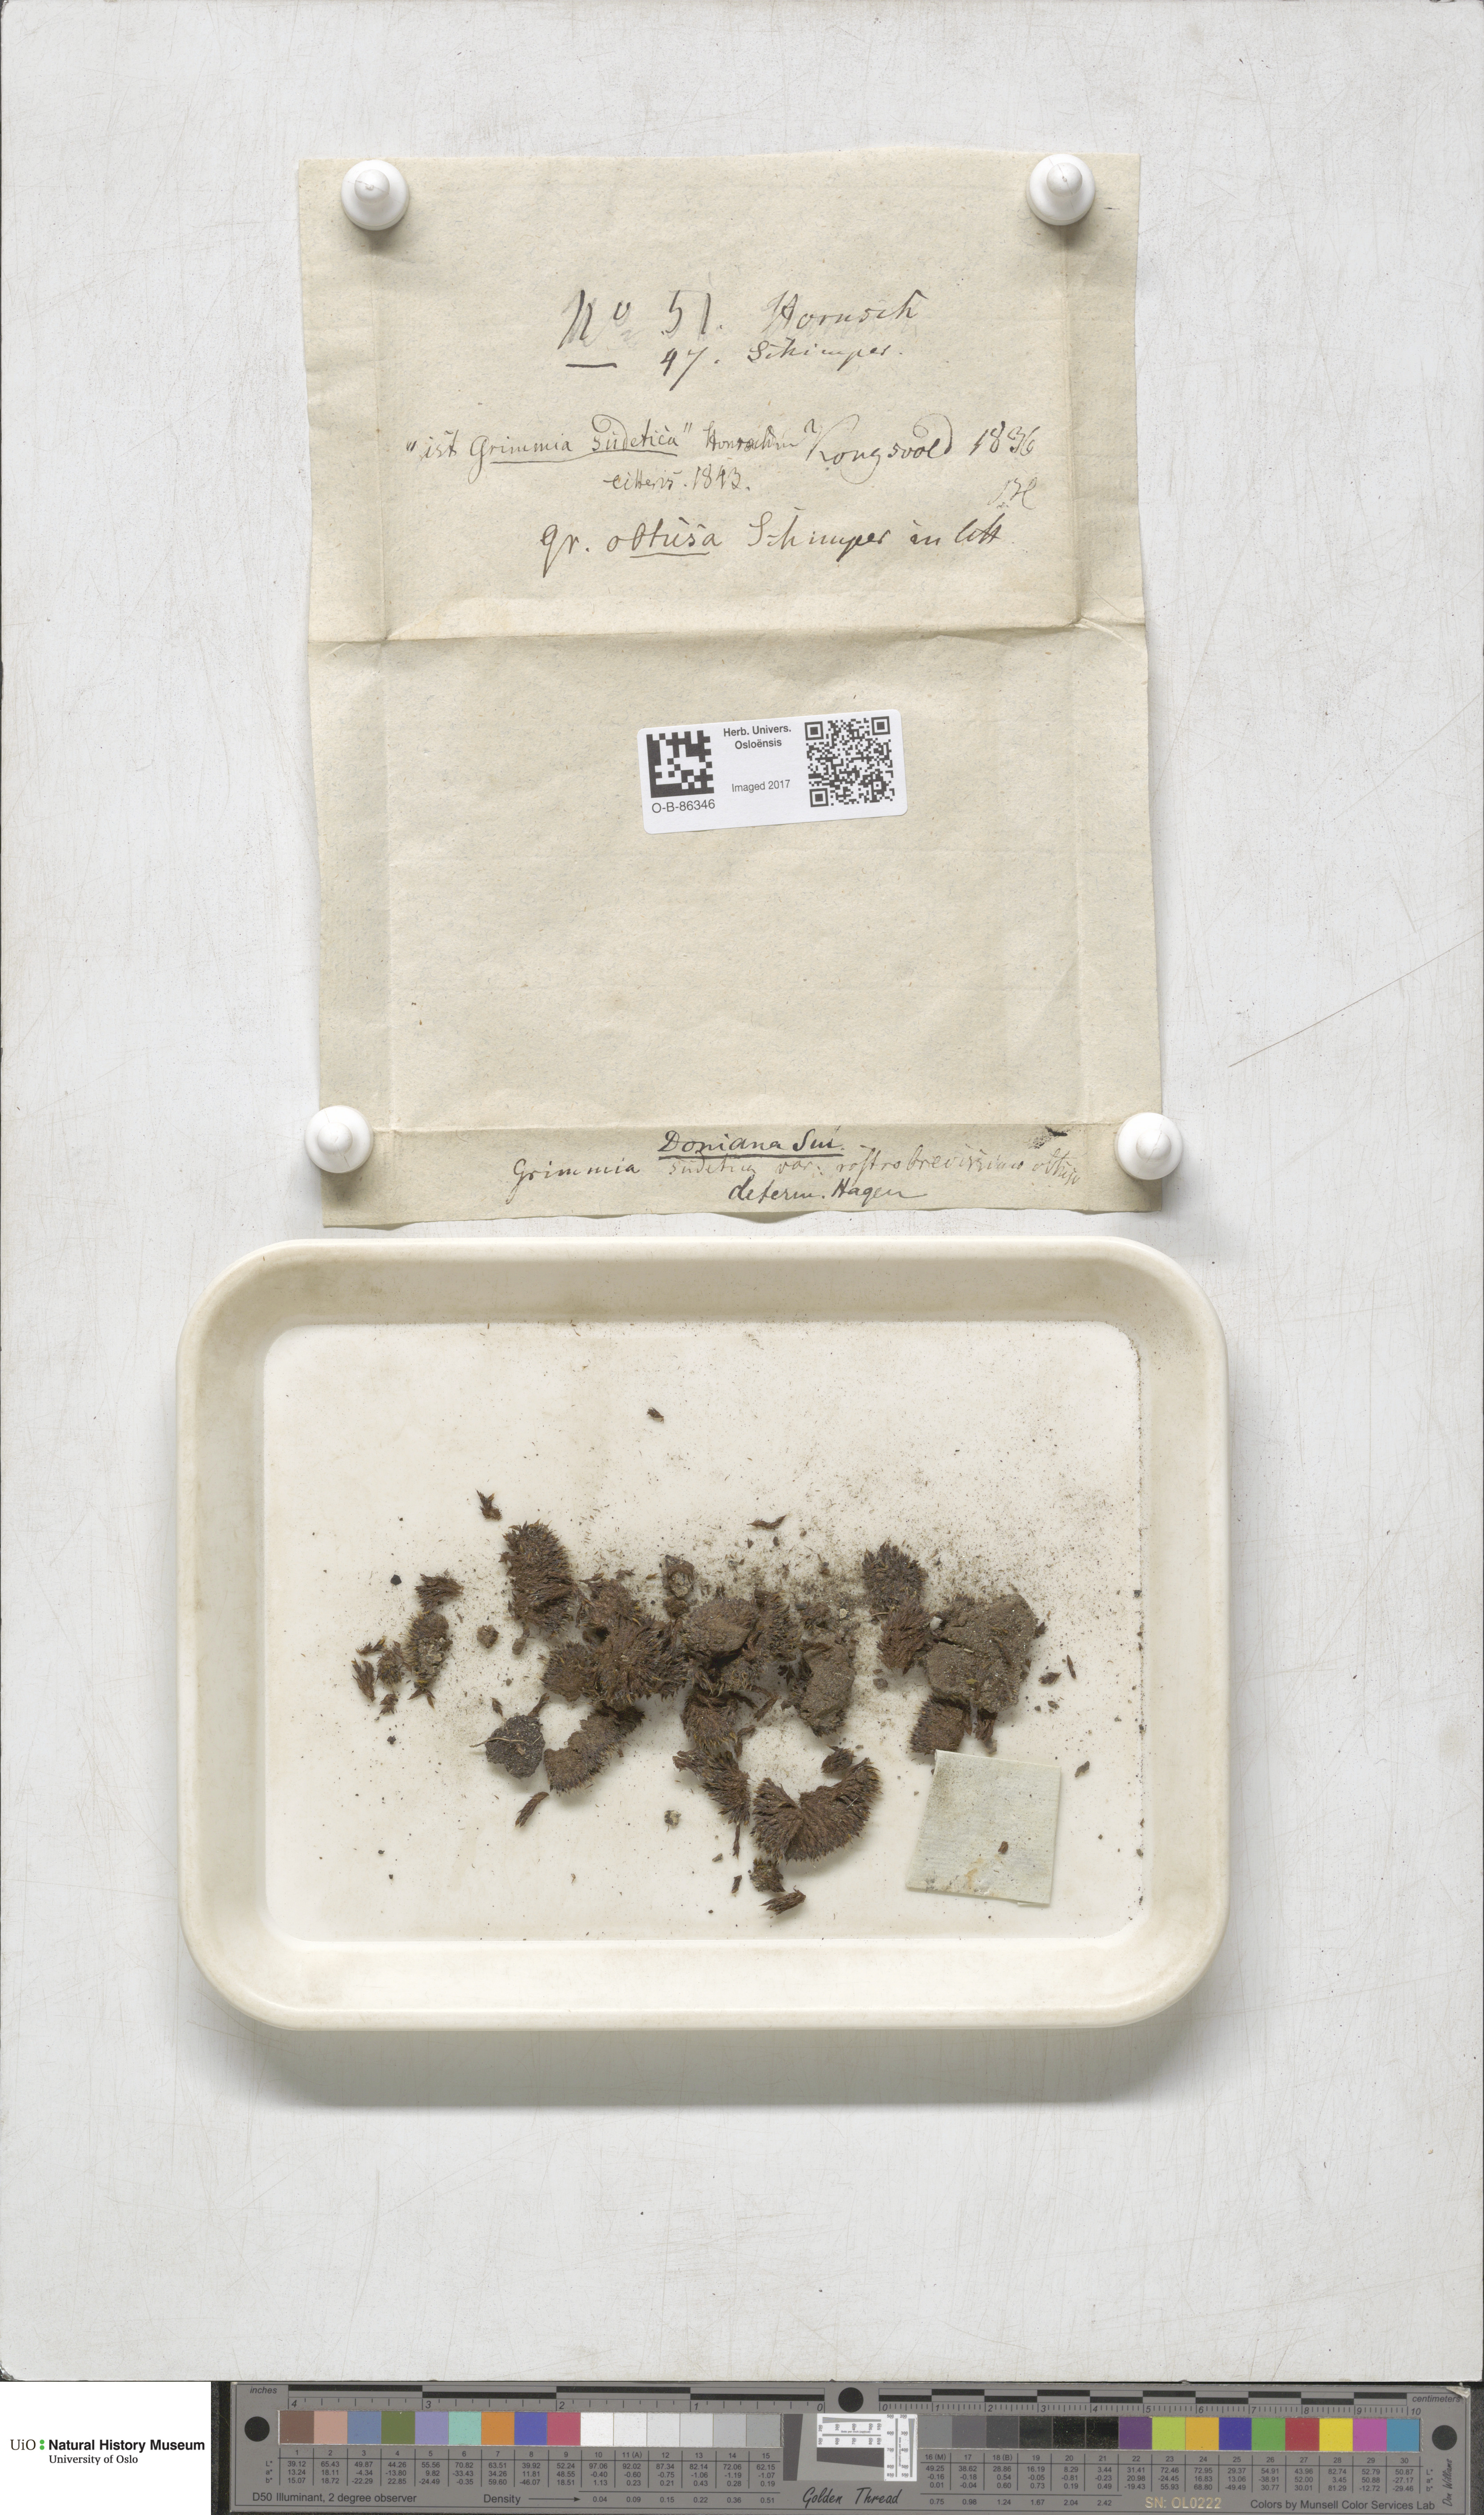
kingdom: Plantae
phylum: Bryophyta
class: Bryopsida
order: Grimmiales
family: Grimmiaceae
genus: Grimmia
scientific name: Grimmia donniana
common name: Donn's grimmia
